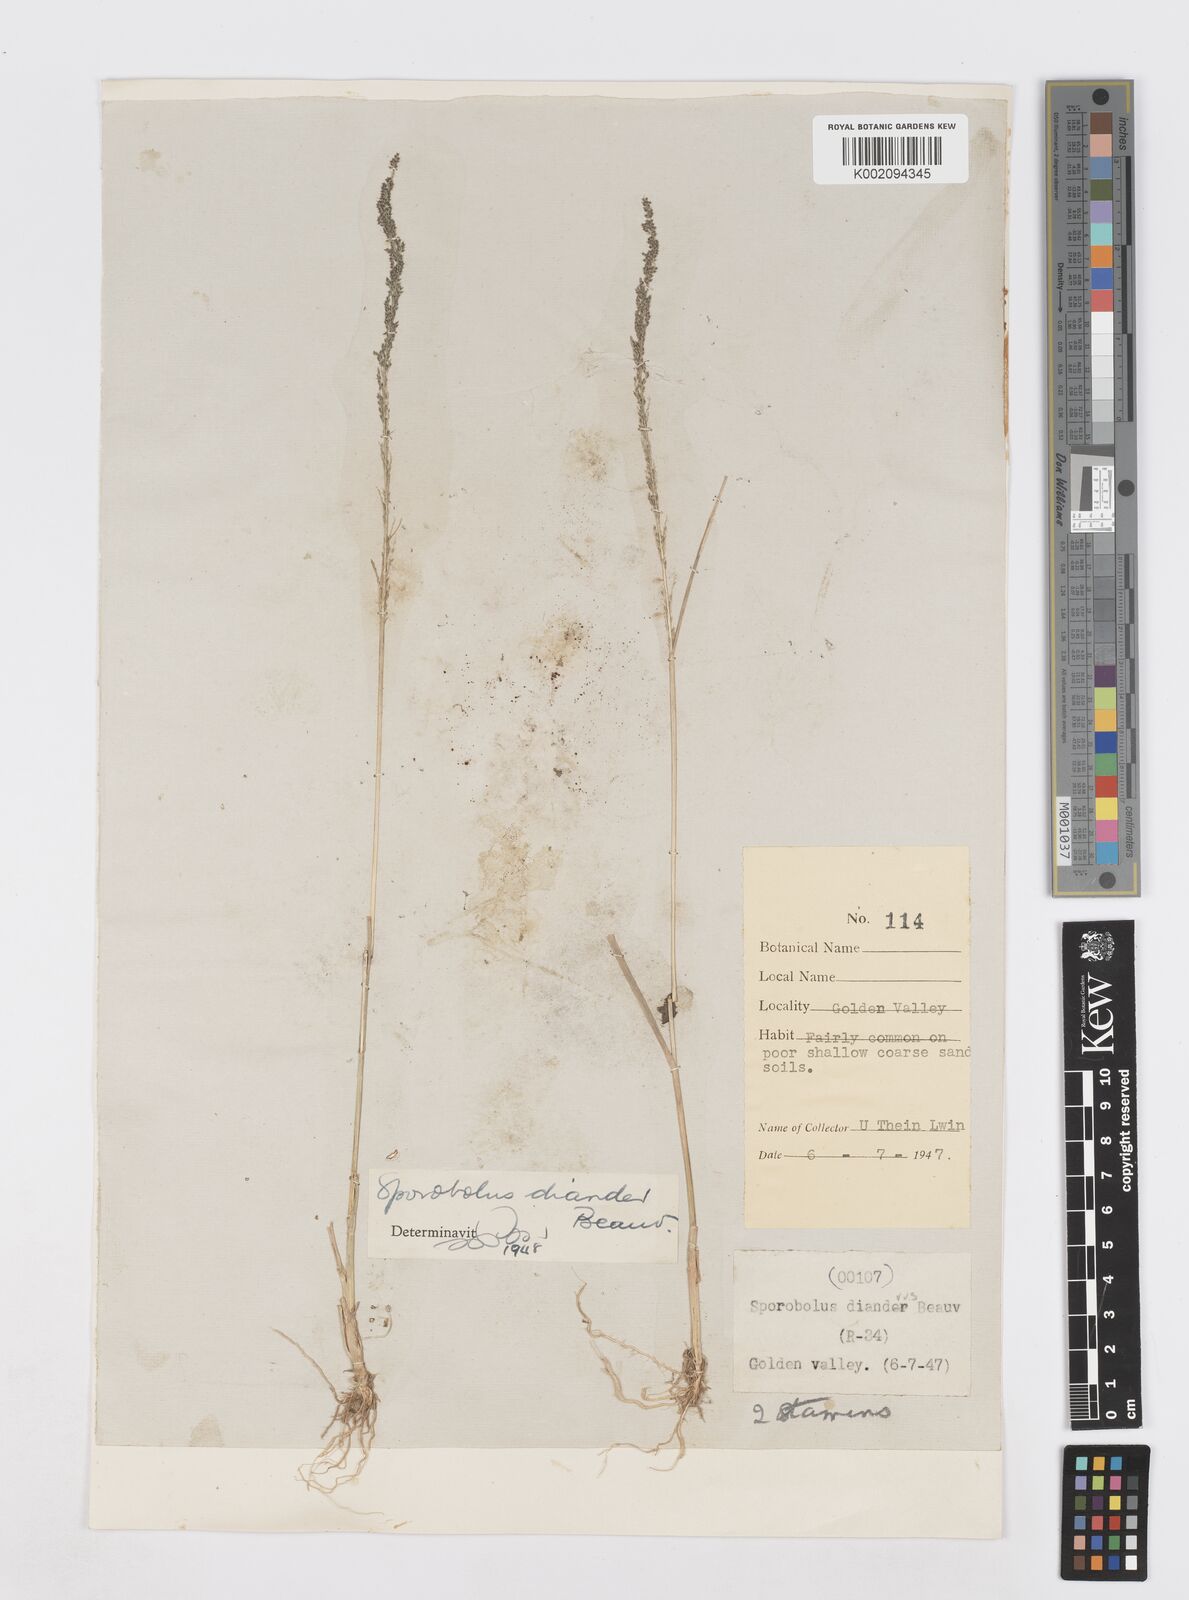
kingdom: Plantae
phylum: Tracheophyta
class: Liliopsida
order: Poales
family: Poaceae
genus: Sporobolus
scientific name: Sporobolus diandrus
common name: Tussock dropseed
